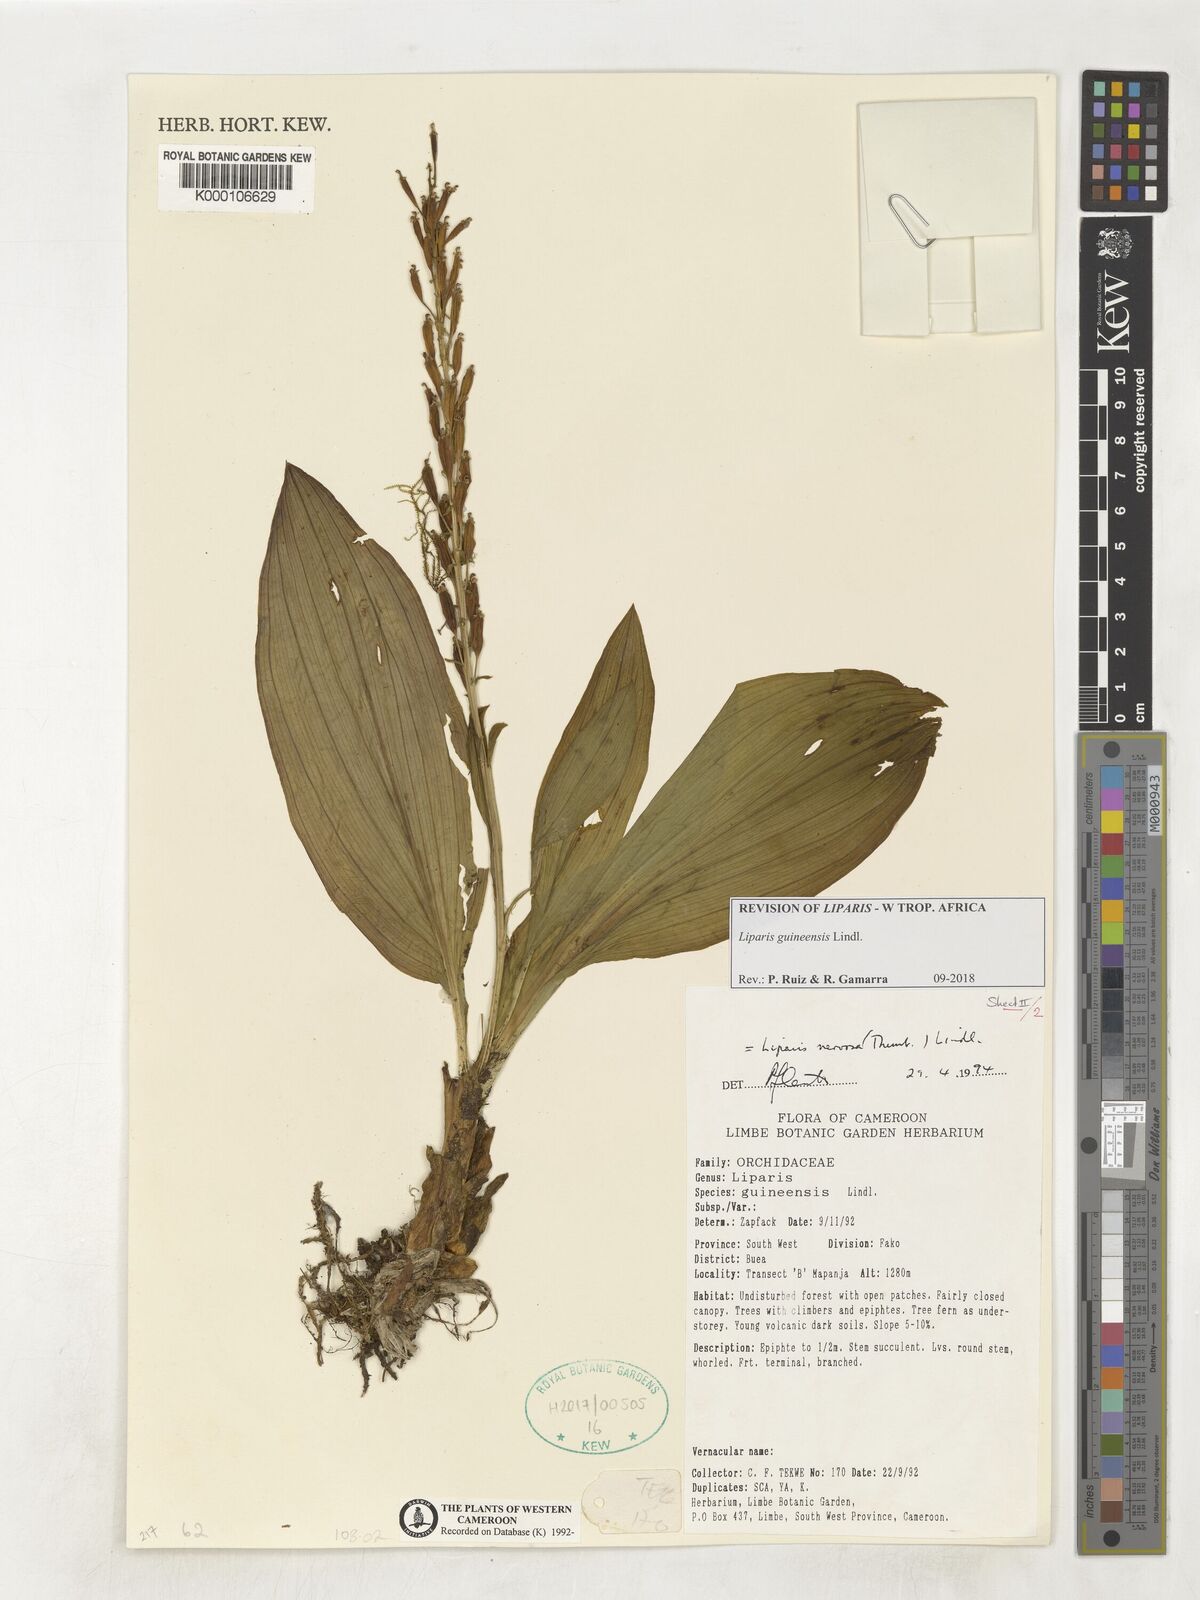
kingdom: Plantae
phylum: Tracheophyta
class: Liliopsida
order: Asparagales
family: Orchidaceae
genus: Liparis
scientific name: Liparis nervosa
